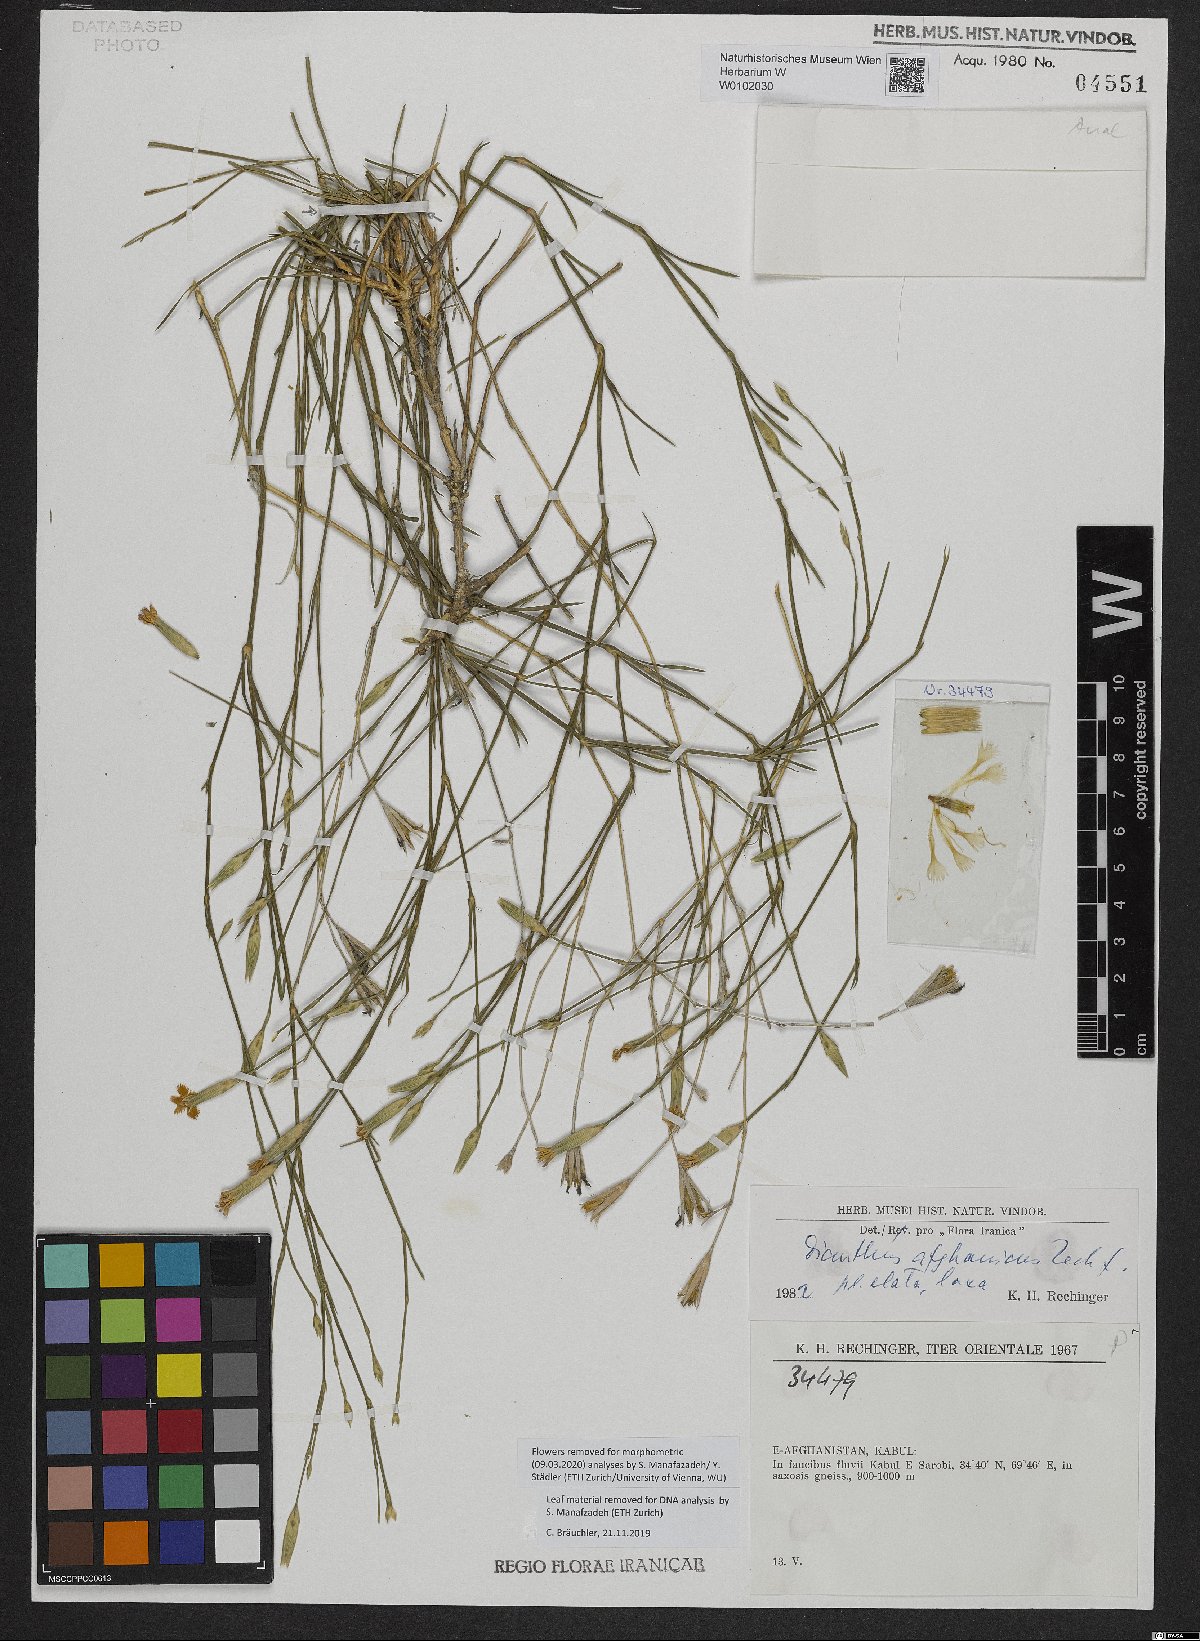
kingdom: Plantae
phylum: Tracheophyta
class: Magnoliopsida
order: Caryophyllales
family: Caryophyllaceae
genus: Dianthus
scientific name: Dianthus afghanicus
